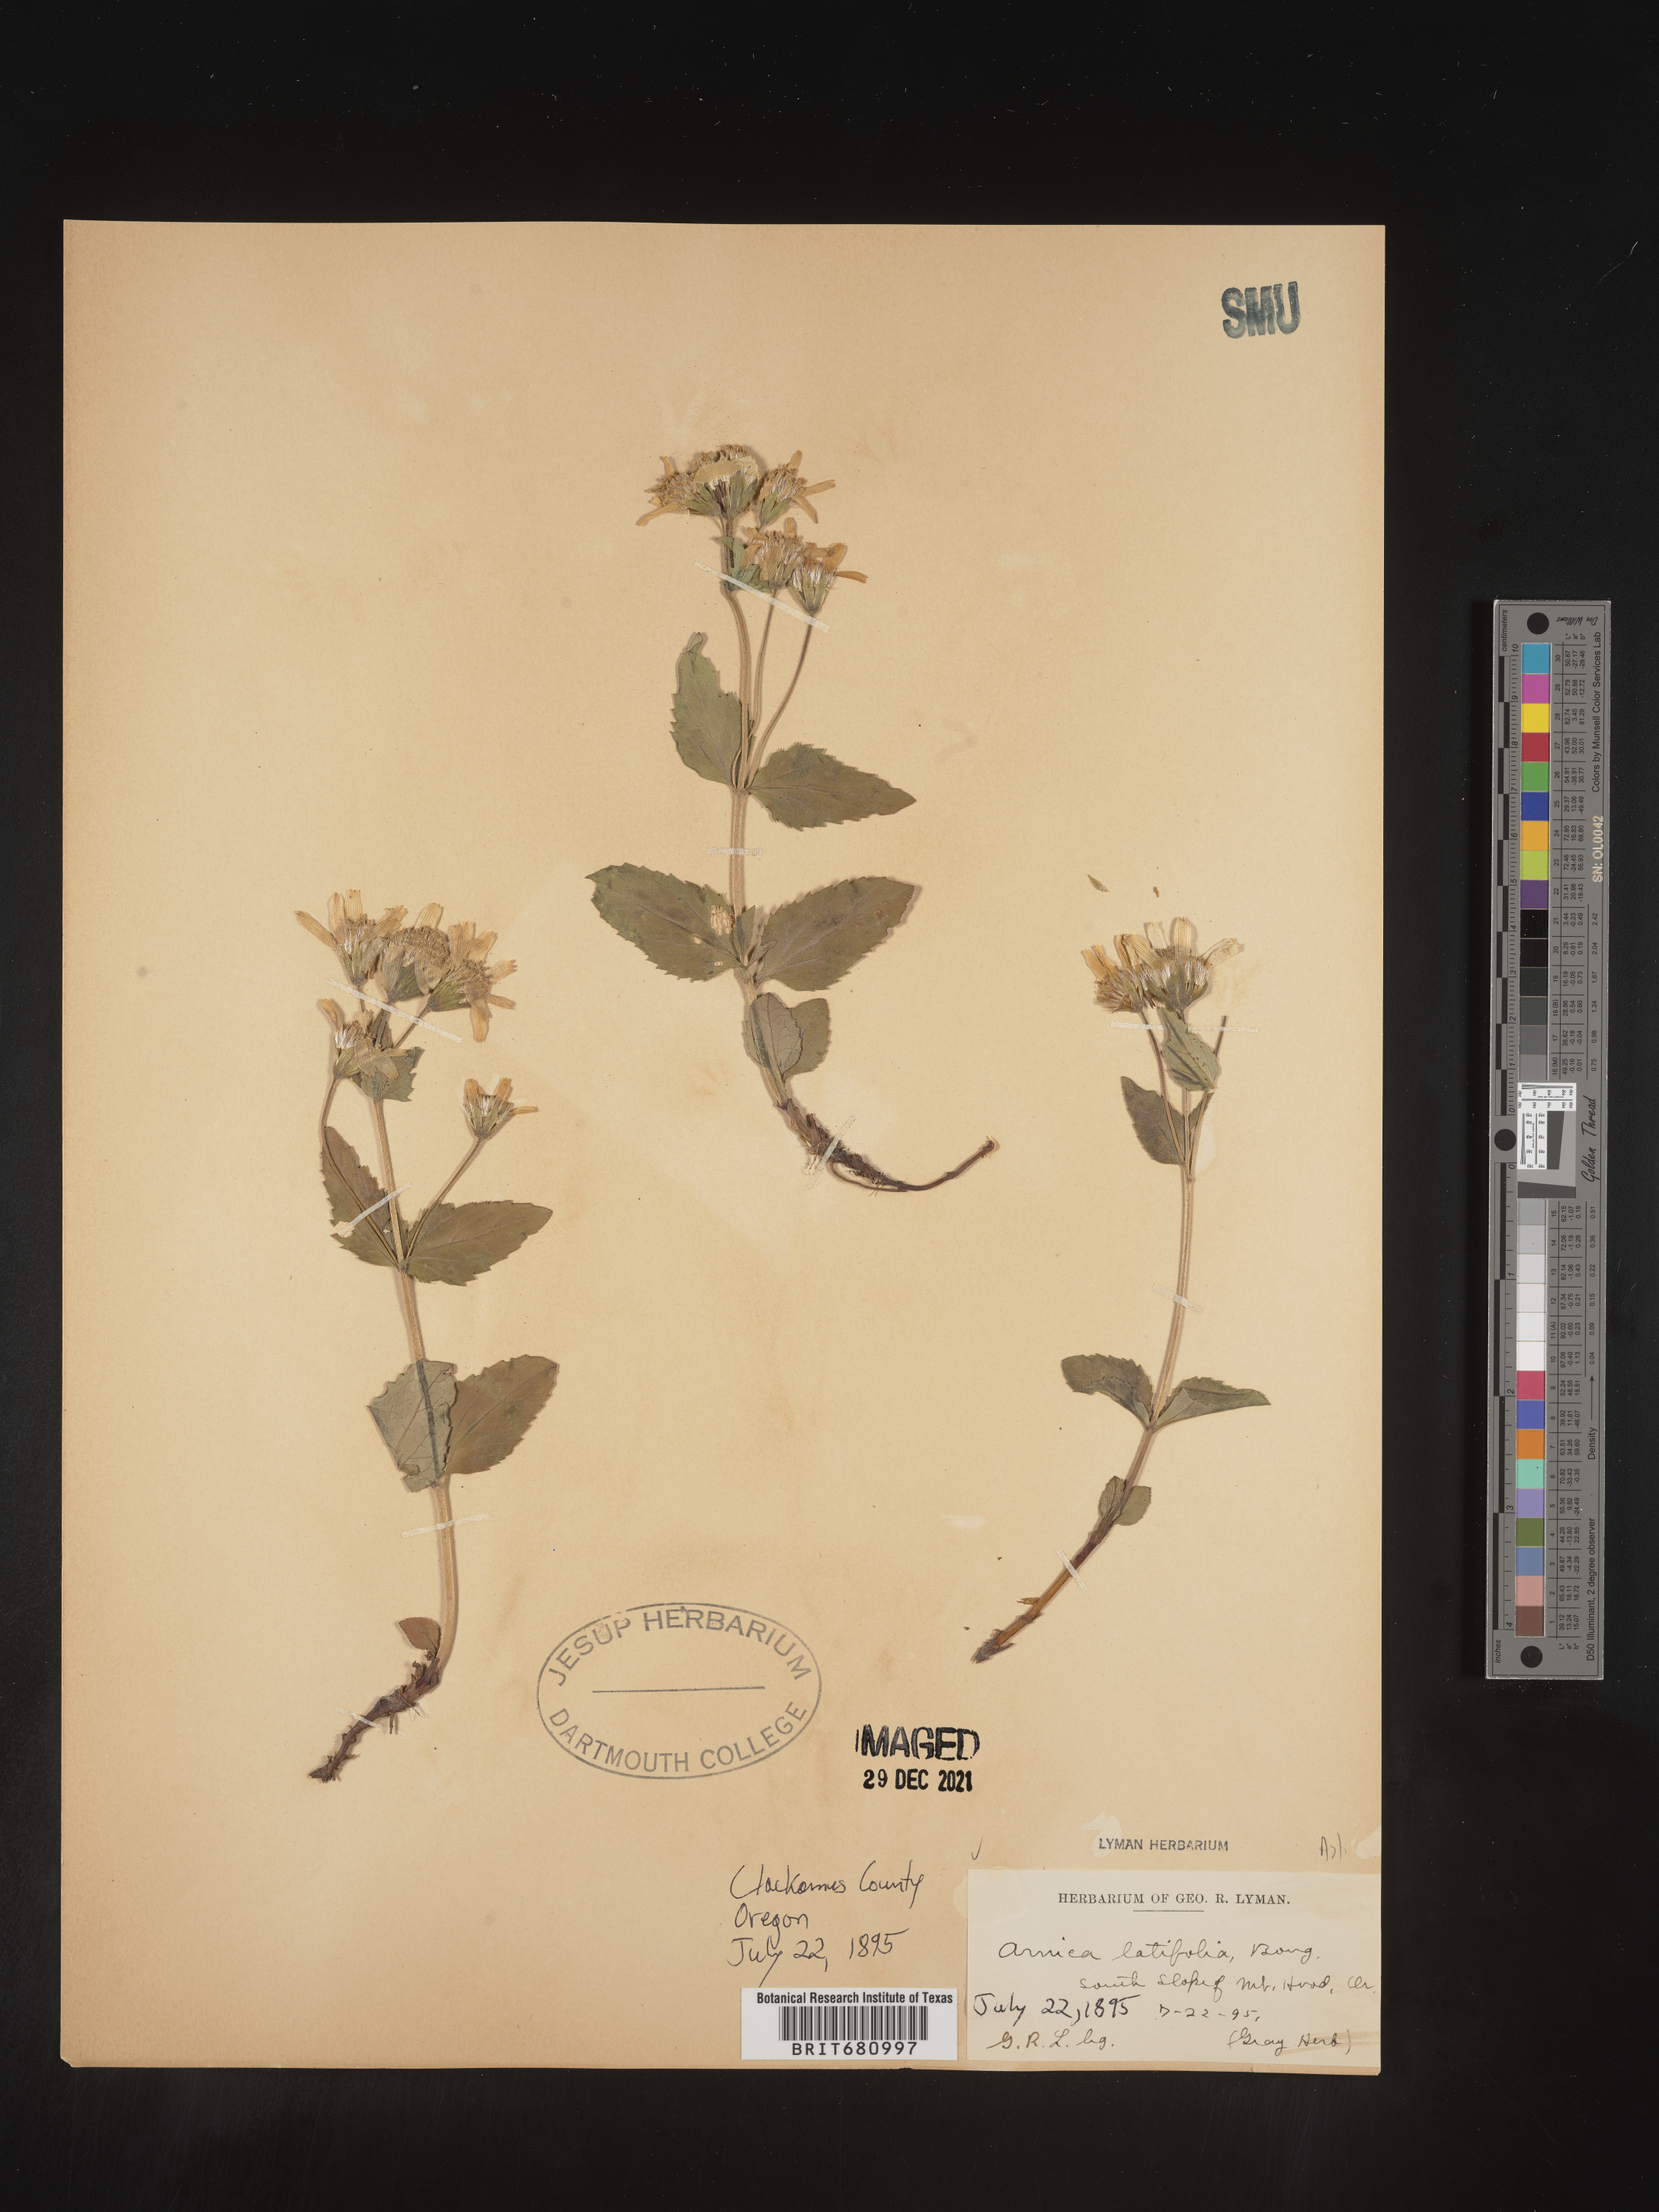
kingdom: Plantae
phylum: Tracheophyta
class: Magnoliopsida
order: Asterales
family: Asteraceae
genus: Arnica
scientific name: Arnica latifolia
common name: Arnica
